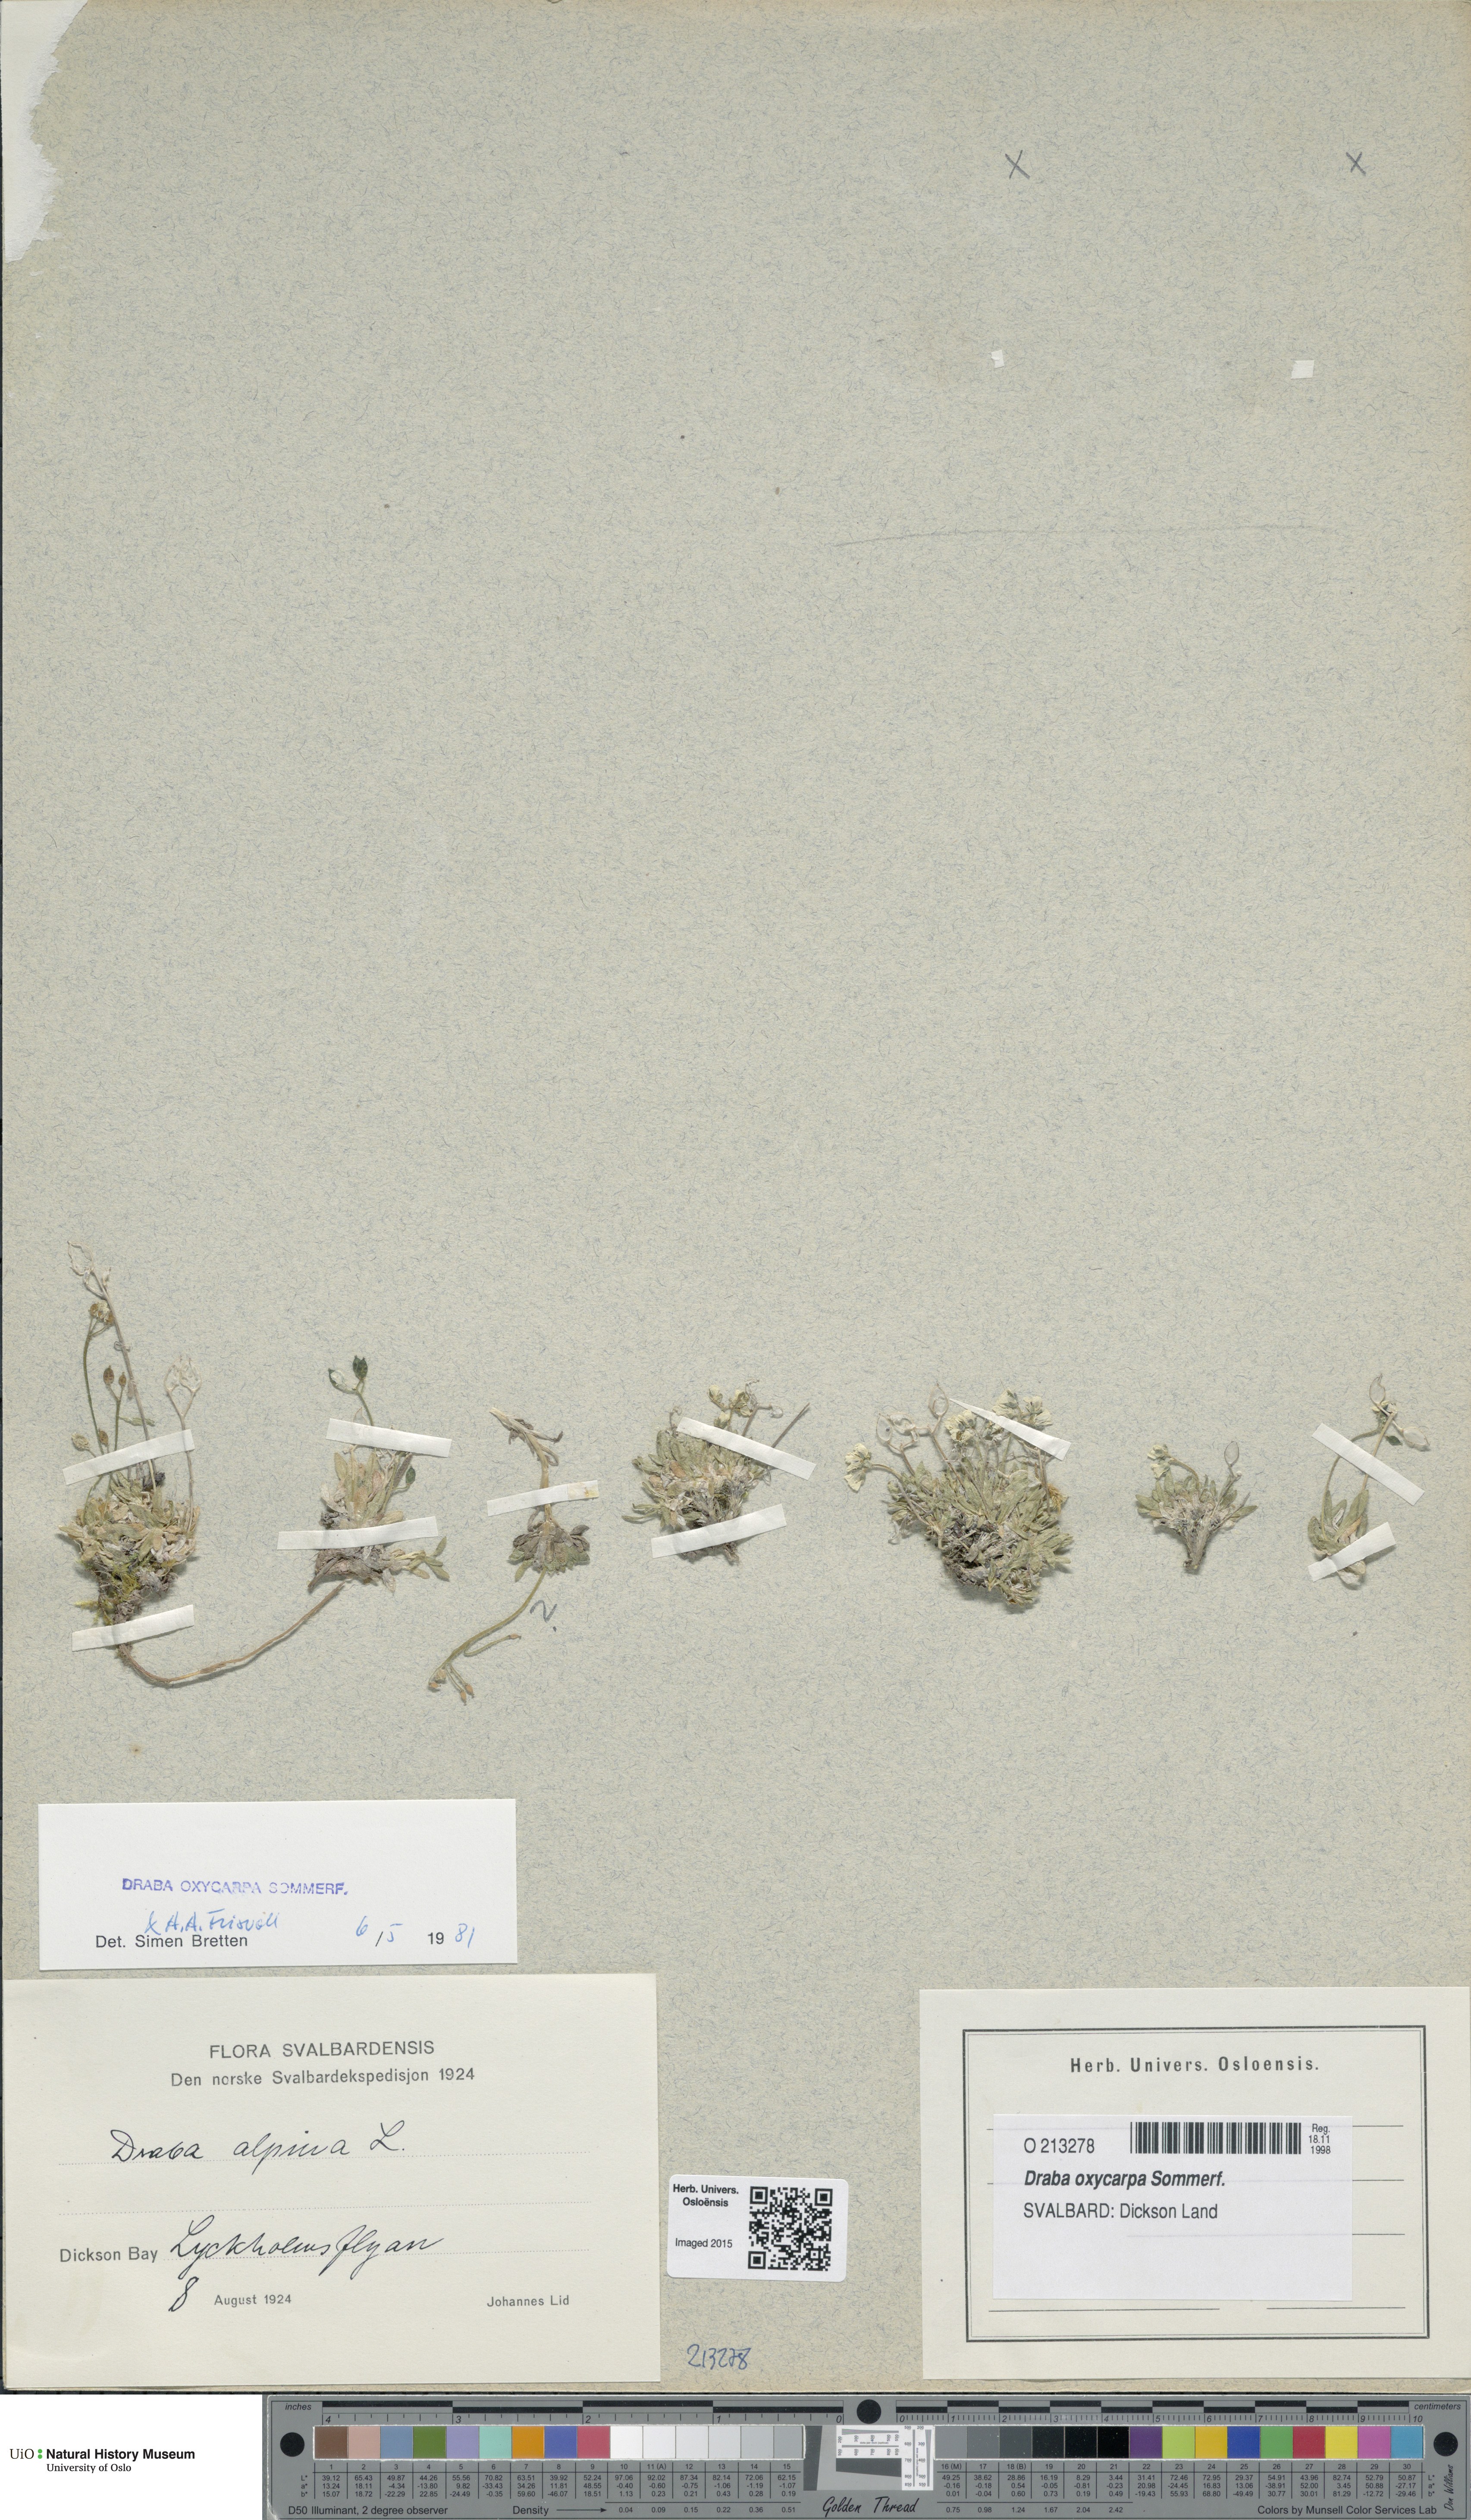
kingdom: Plantae
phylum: Tracheophyta
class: Magnoliopsida
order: Brassicales
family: Brassicaceae
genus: Draba
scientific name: Draba oxycarpa
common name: Sharp-fruited whitlow-grass
